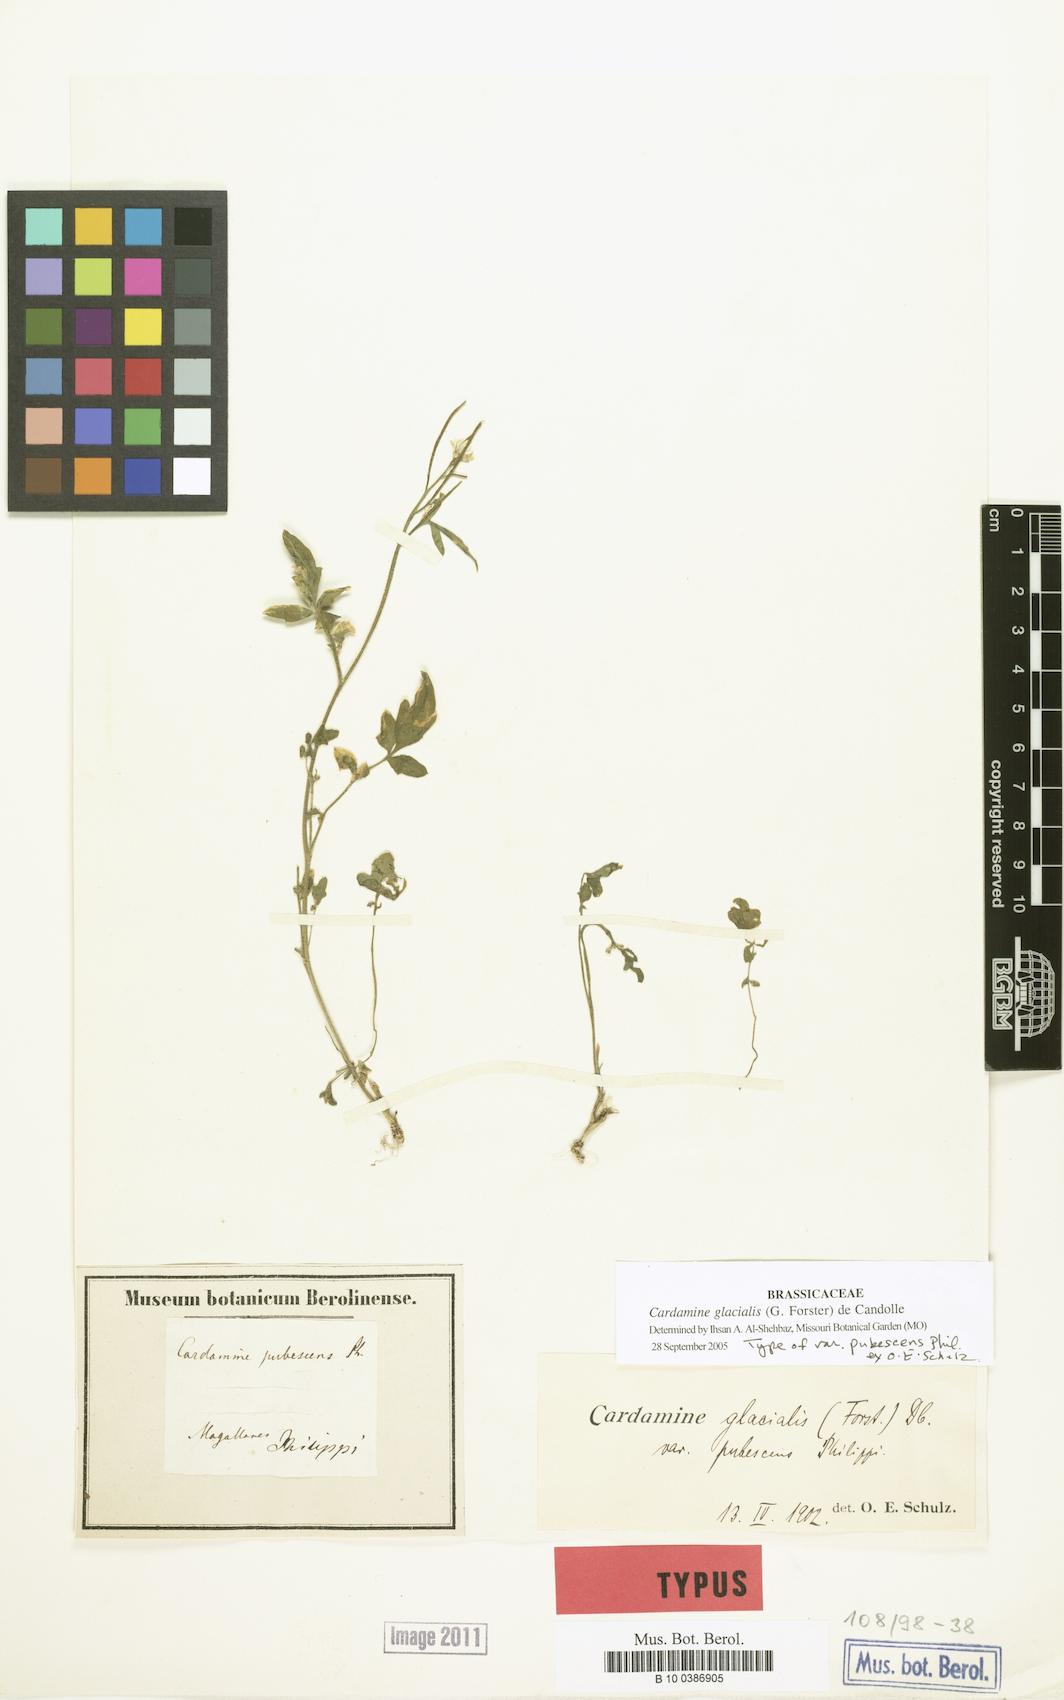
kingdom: Plantae
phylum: Tracheophyta
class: Magnoliopsida
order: Brassicales
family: Brassicaceae
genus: Cardamine
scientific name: Cardamine glacialis
